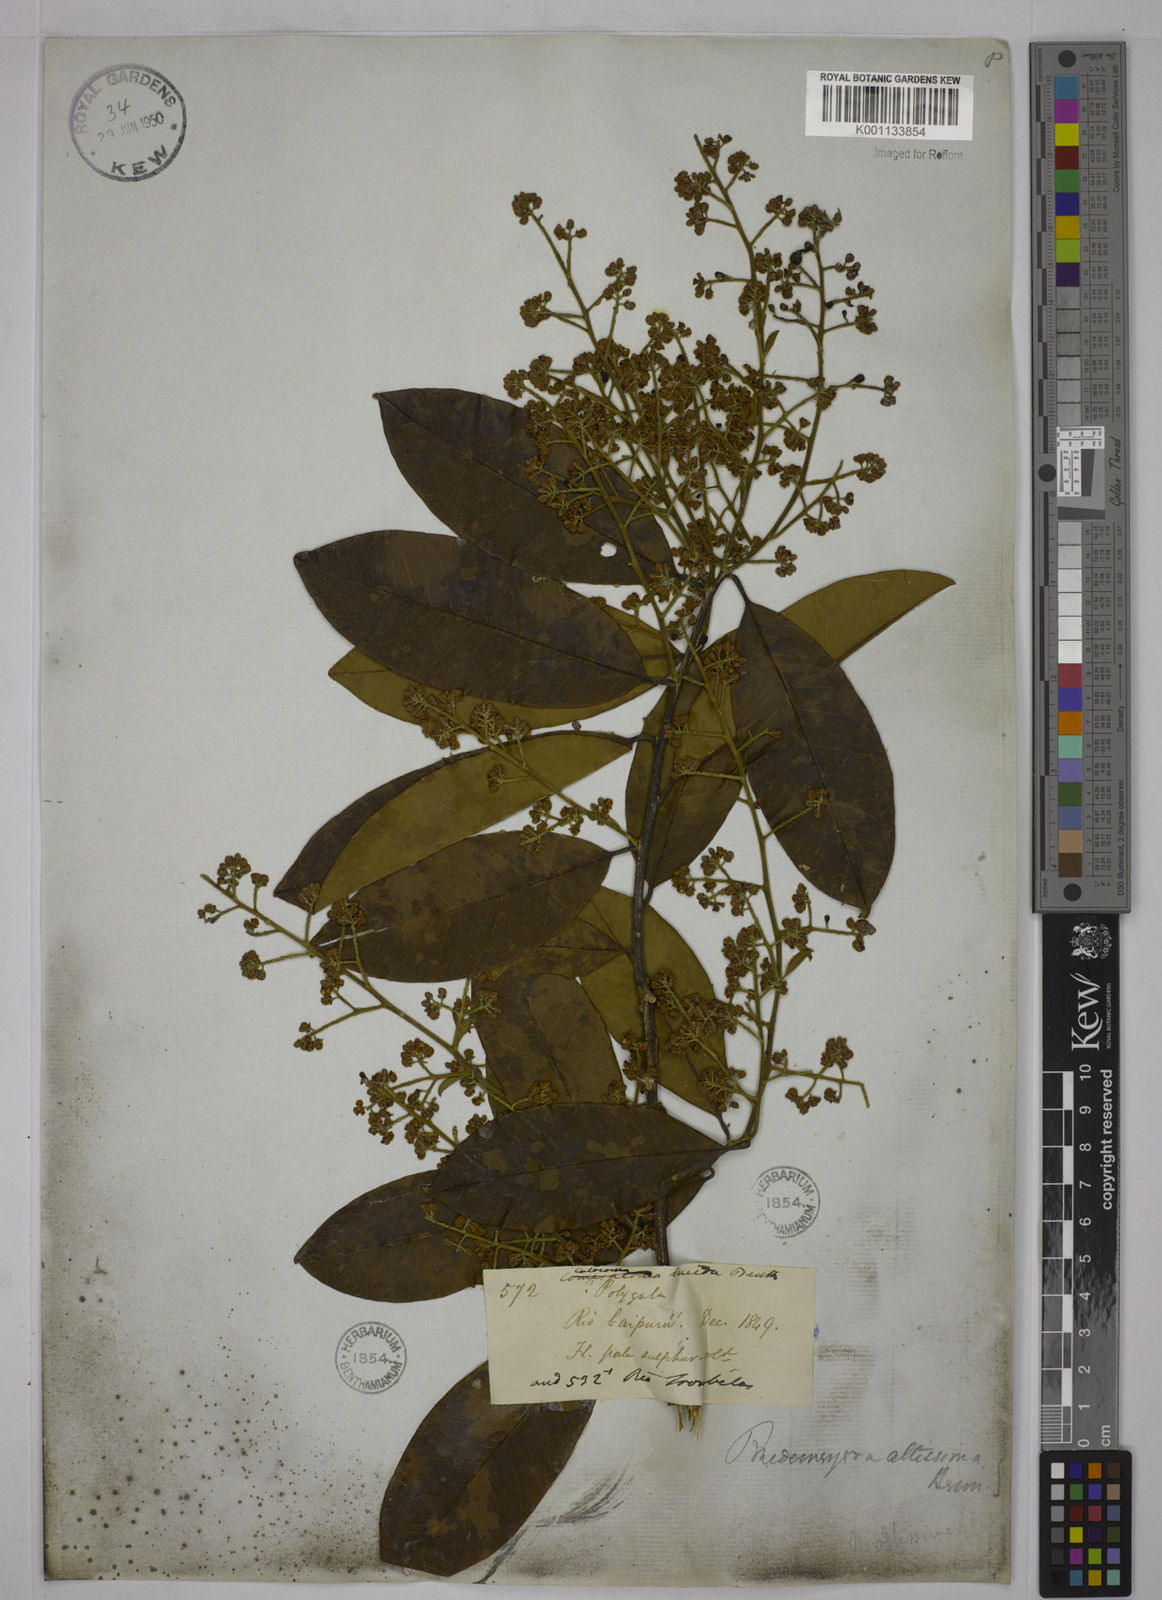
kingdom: Plantae
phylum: Tracheophyta
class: Magnoliopsida
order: Fabales
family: Polygalaceae
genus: Bredemeyera
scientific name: Bredemeyera divaricata
